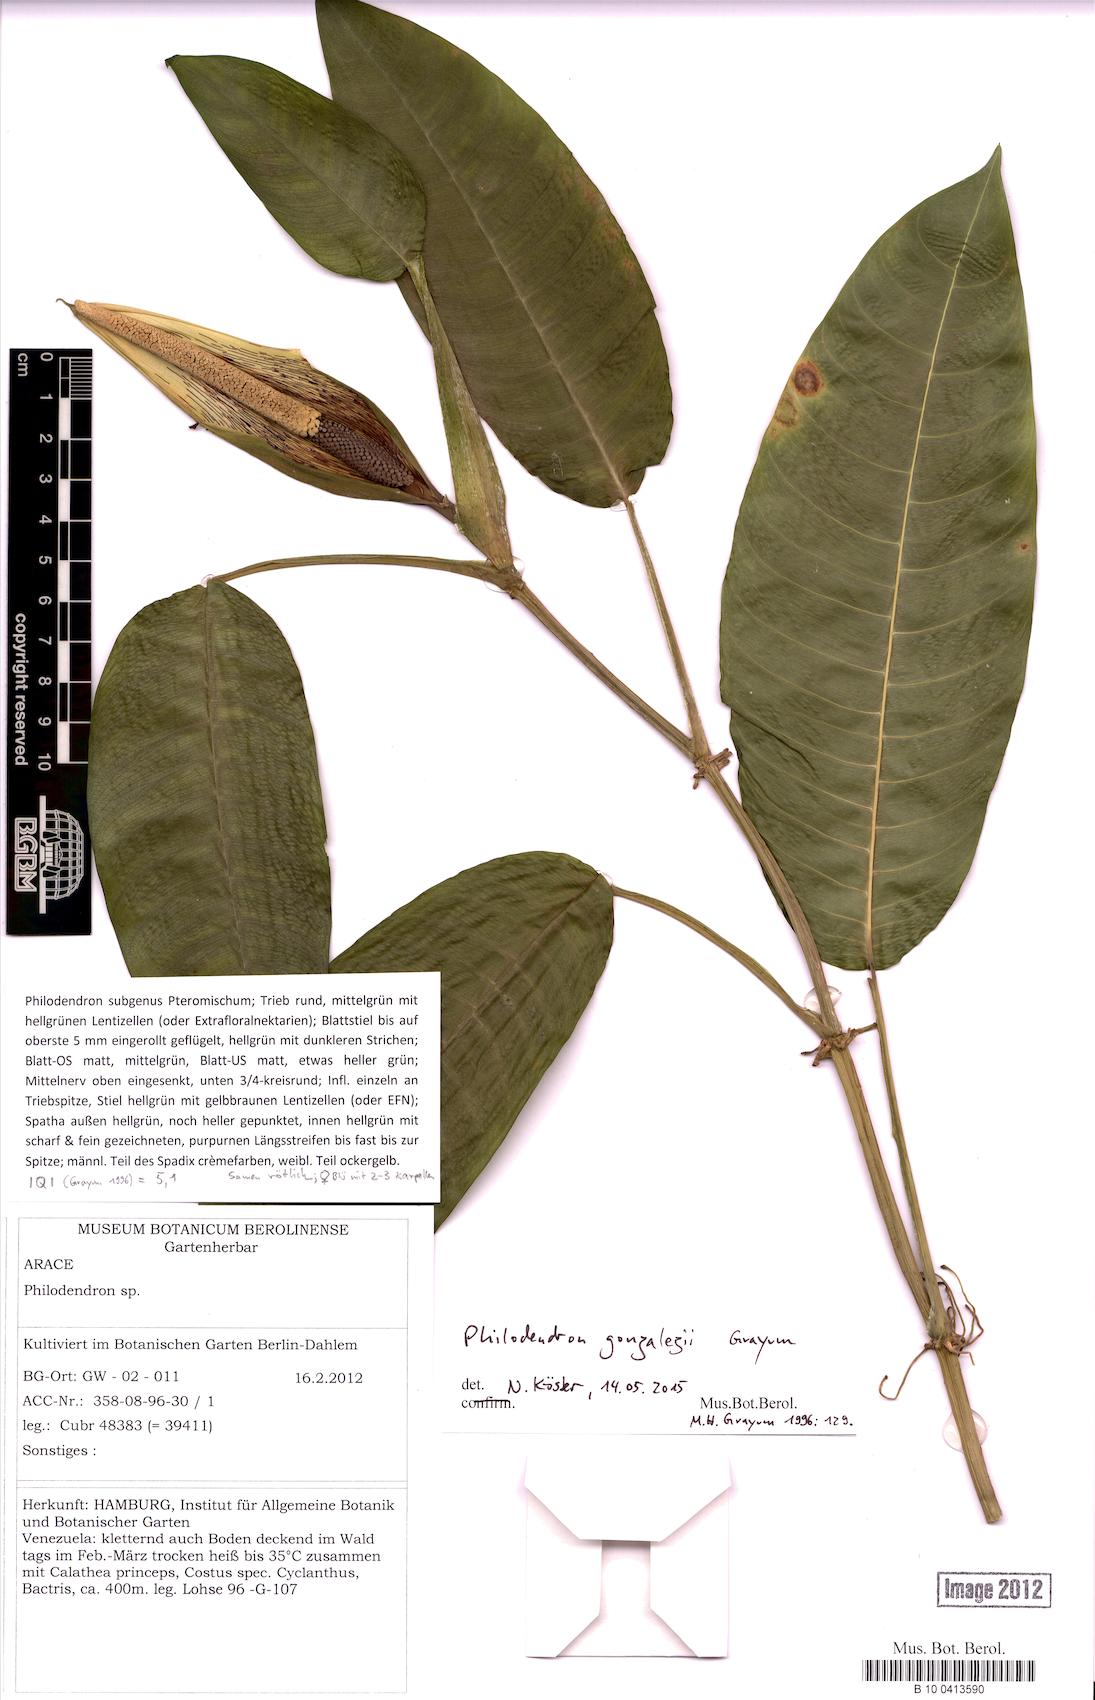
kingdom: Plantae
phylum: Tracheophyta
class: Liliopsida
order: Alismatales
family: Araceae
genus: Philodendron
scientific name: Philodendron gonzalezii
